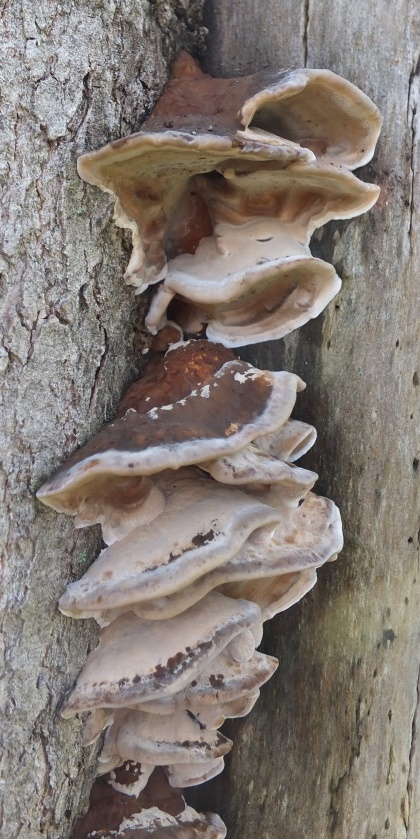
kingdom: Fungi
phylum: Basidiomycota
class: Agaricomycetes
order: Hymenochaetales
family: Oxyporaceae
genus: Oxyporus
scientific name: Oxyporus populinus
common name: sammenvokset trylleporesvamp
